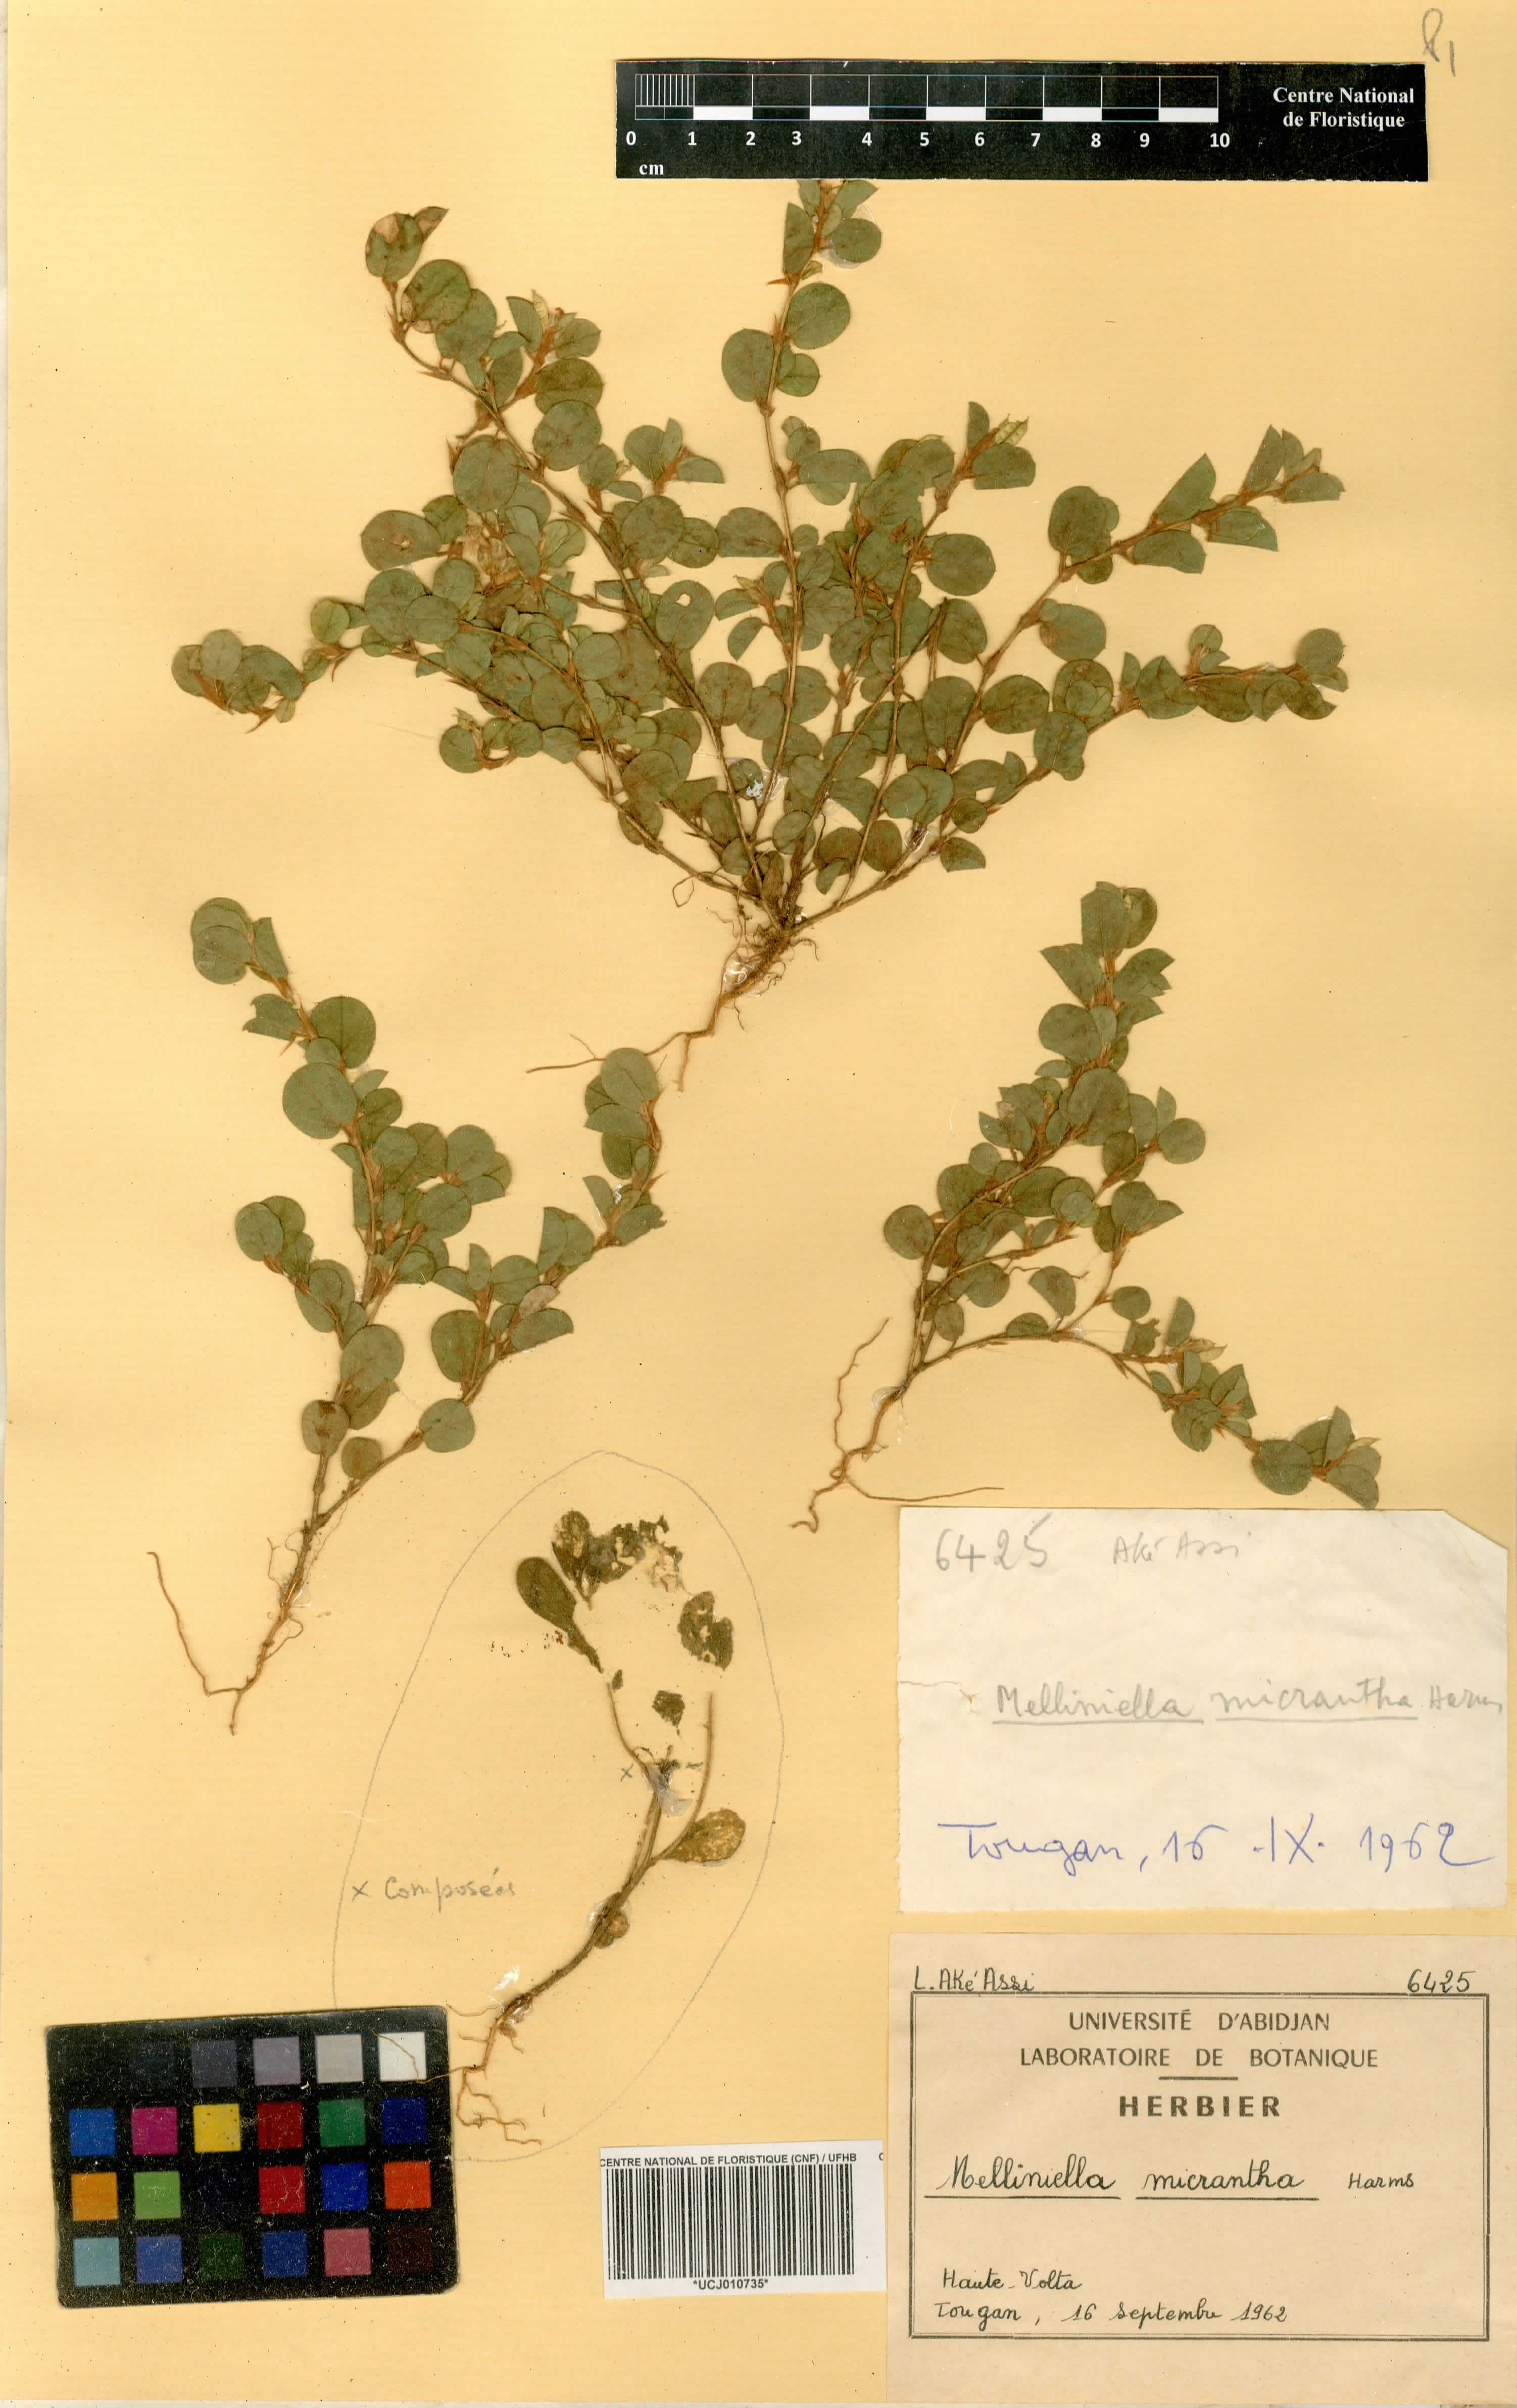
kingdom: Plantae
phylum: Tracheophyta
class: Magnoliopsida
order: Fabales
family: Fabaceae
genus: Melliniella
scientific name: Melliniella micrantha
